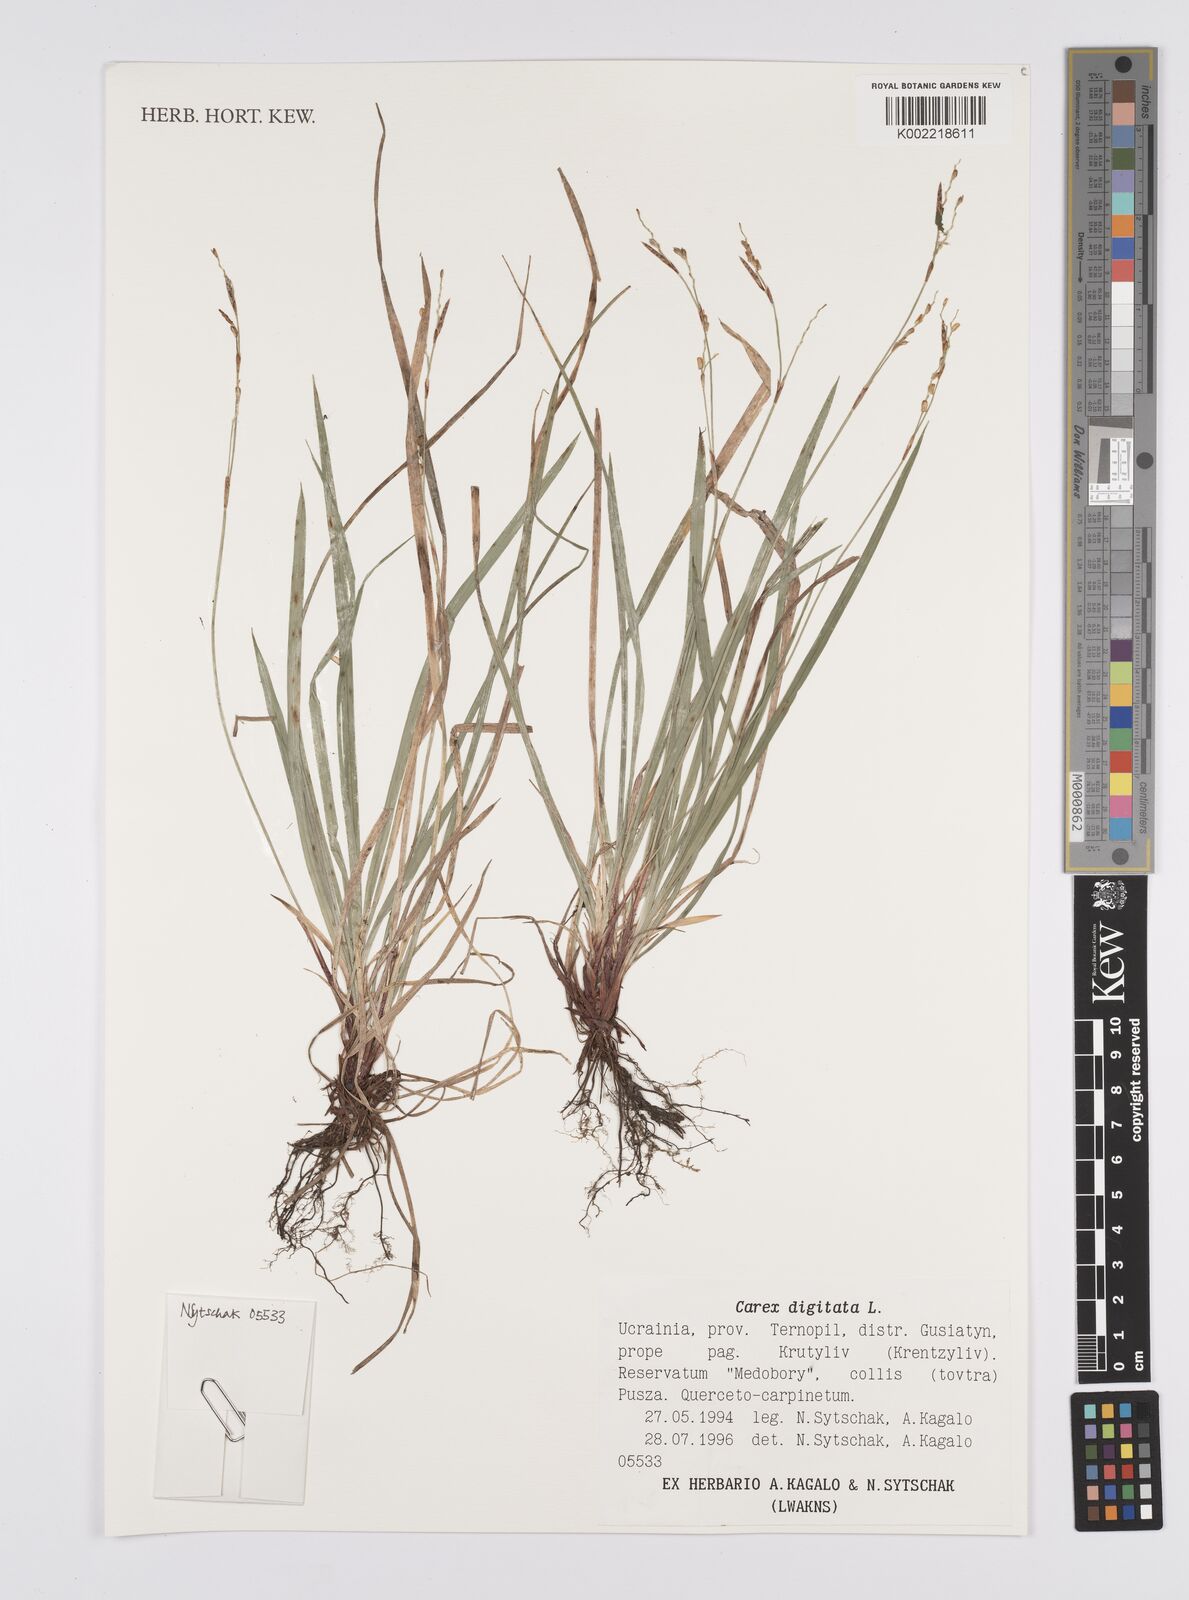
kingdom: Plantae
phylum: Tracheophyta
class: Liliopsida
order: Poales
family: Cyperaceae
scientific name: Cyperaceae
